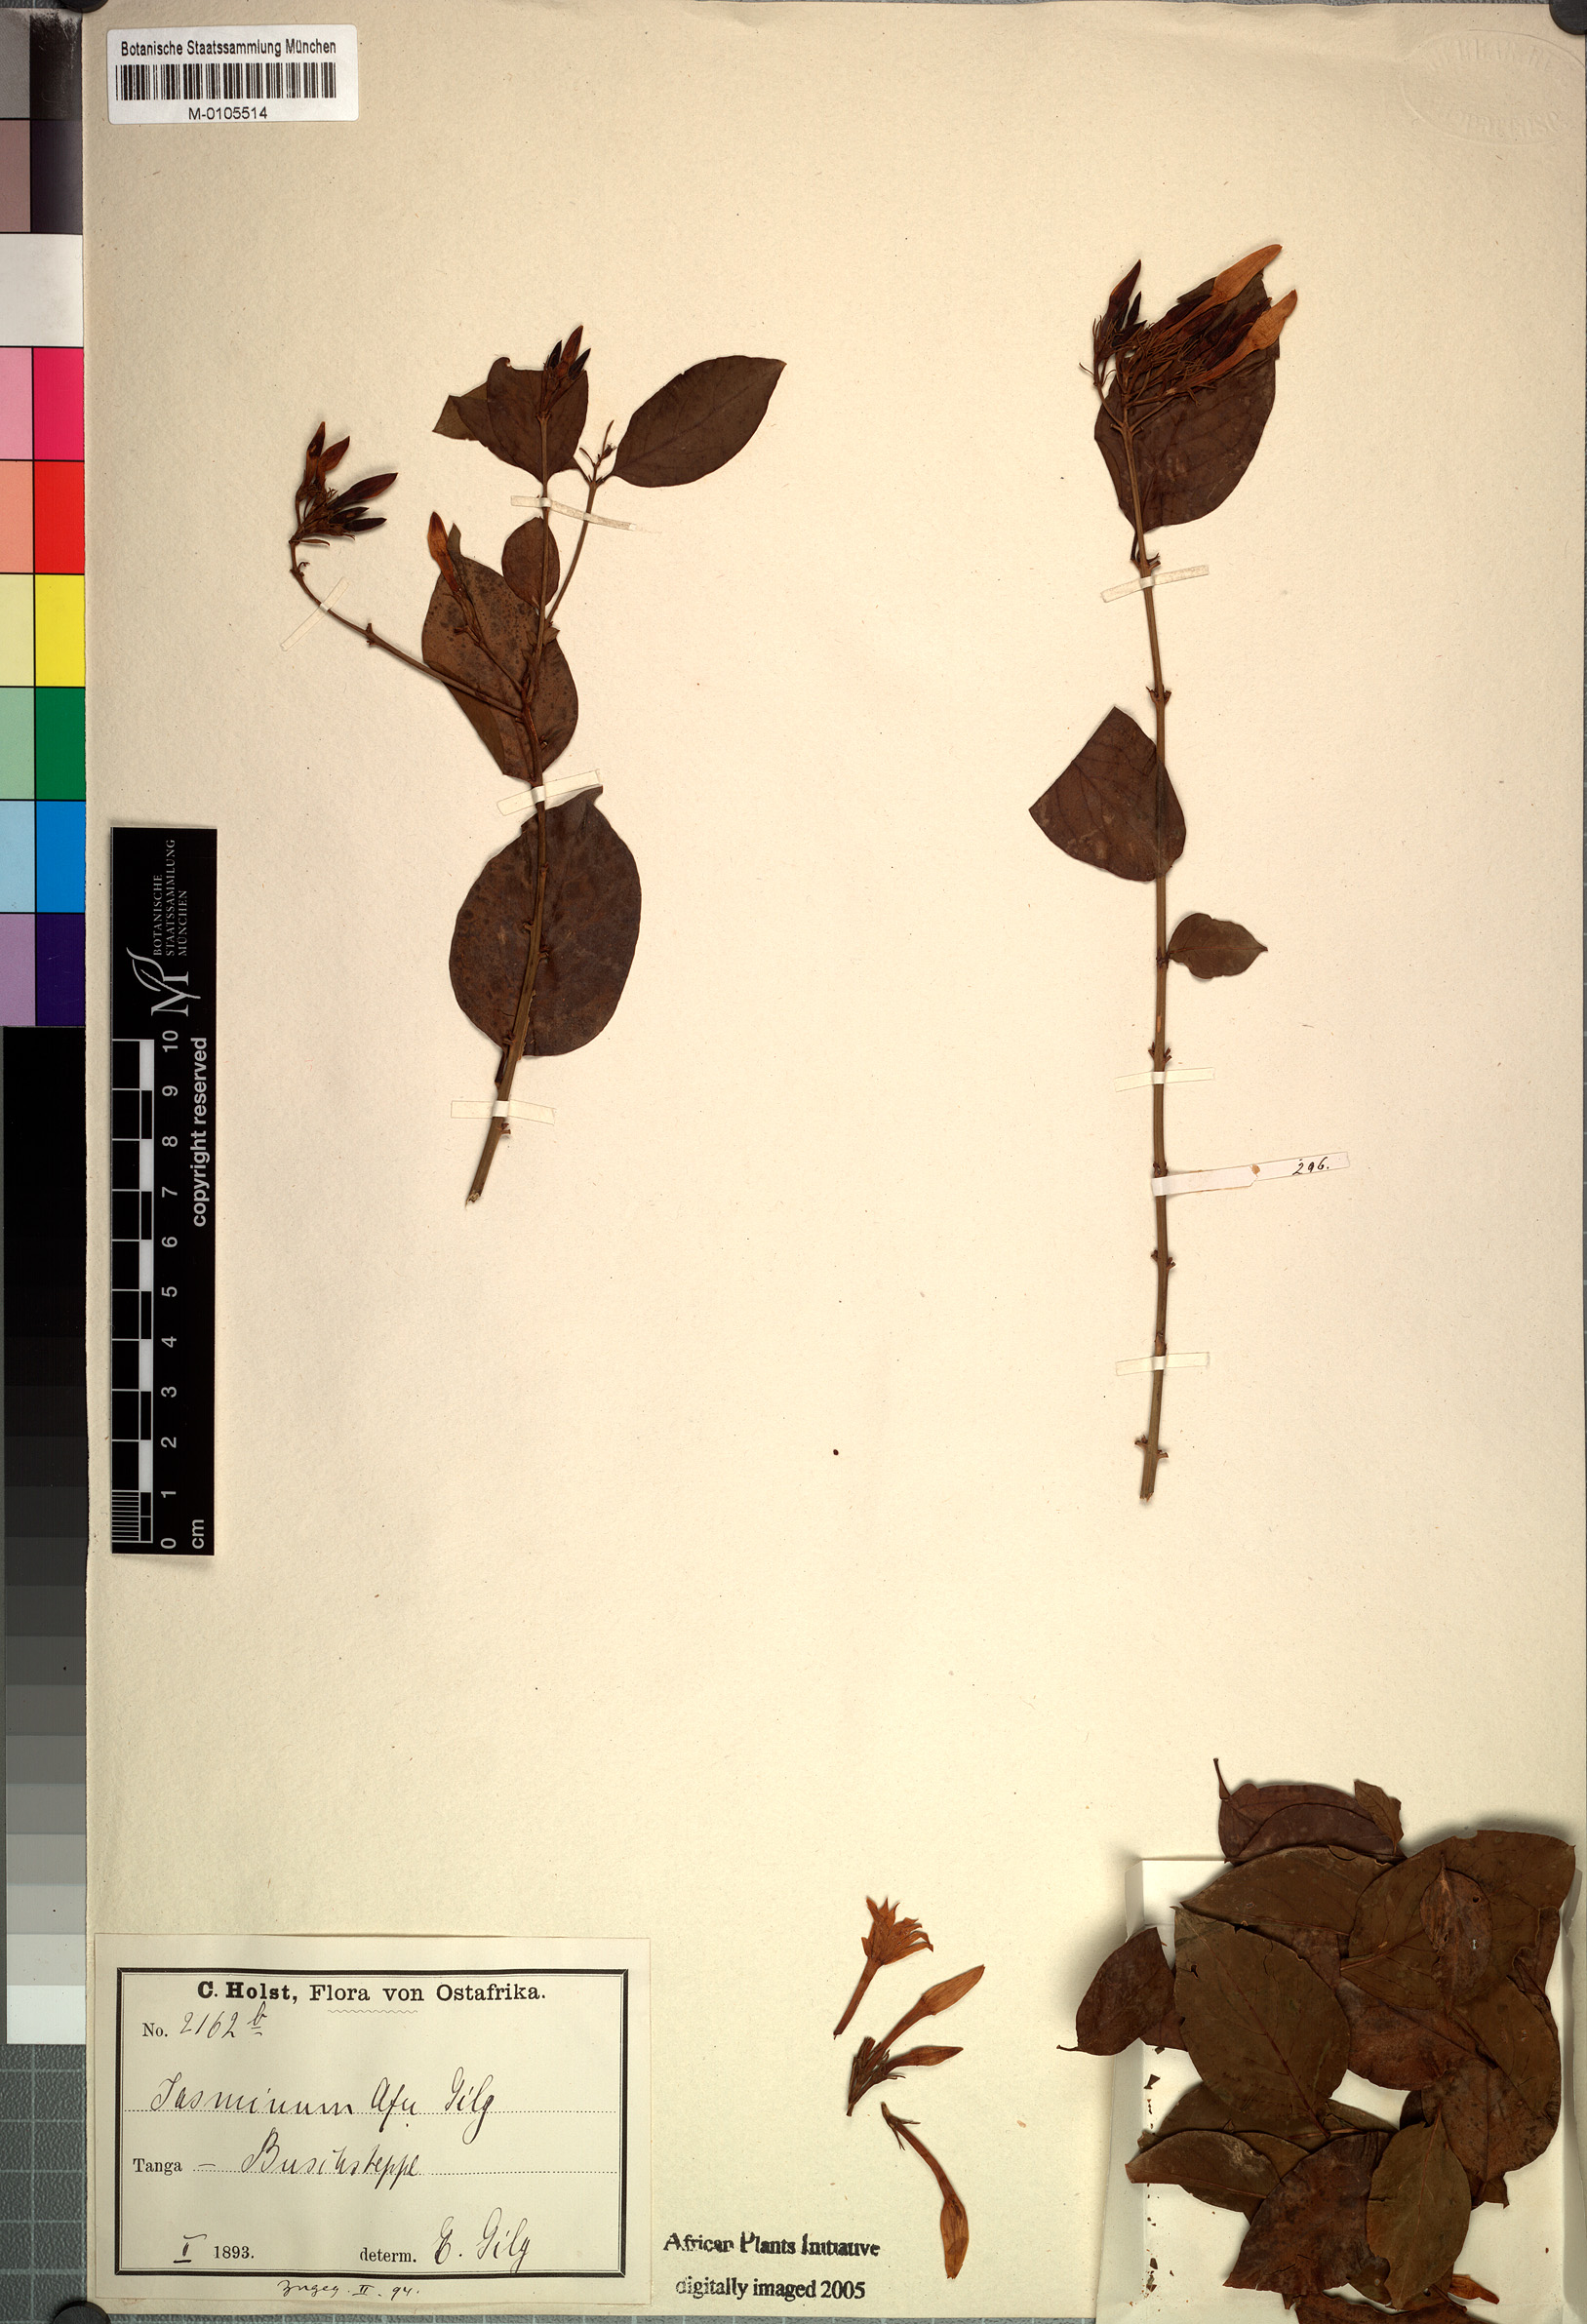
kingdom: Plantae
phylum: Tracheophyta
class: Magnoliopsida
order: Lamiales
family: Oleaceae
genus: Jasminum
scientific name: Jasminum meyeri-johannis
